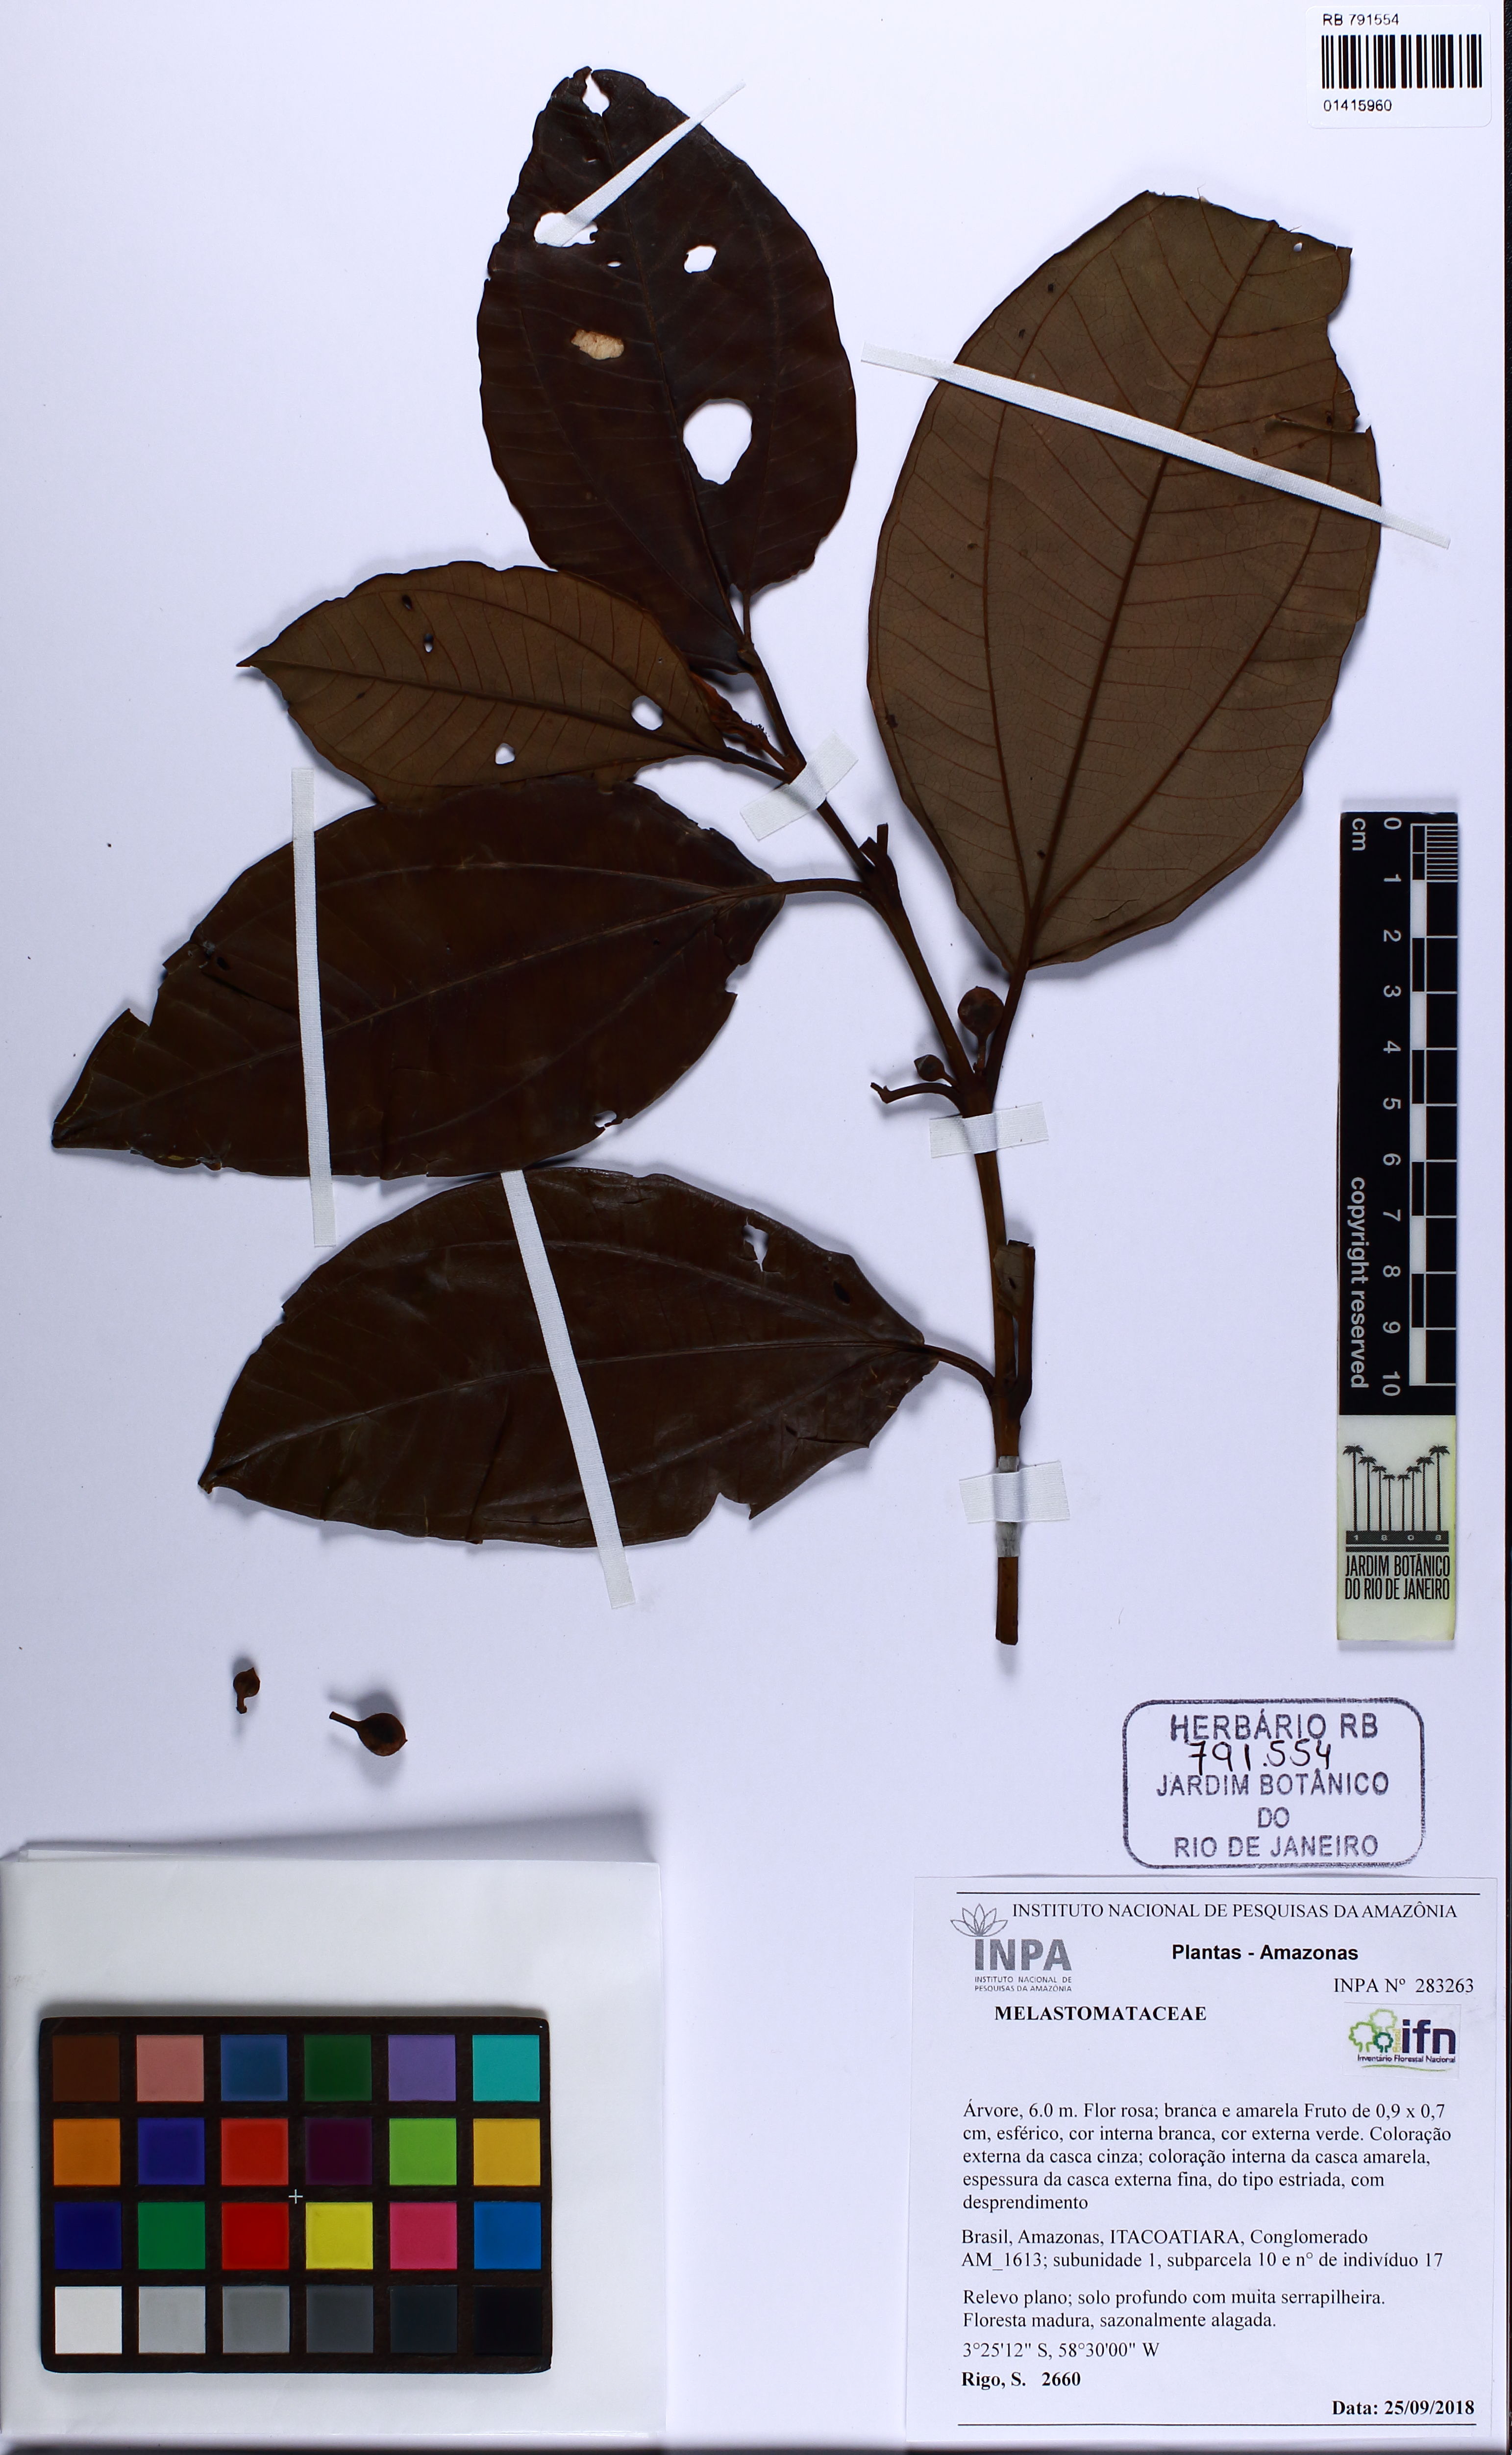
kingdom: Plantae
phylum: Tracheophyta
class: Magnoliopsida
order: Myrtales
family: Melastomataceae
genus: Bellucia
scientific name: Bellucia grossularioides
